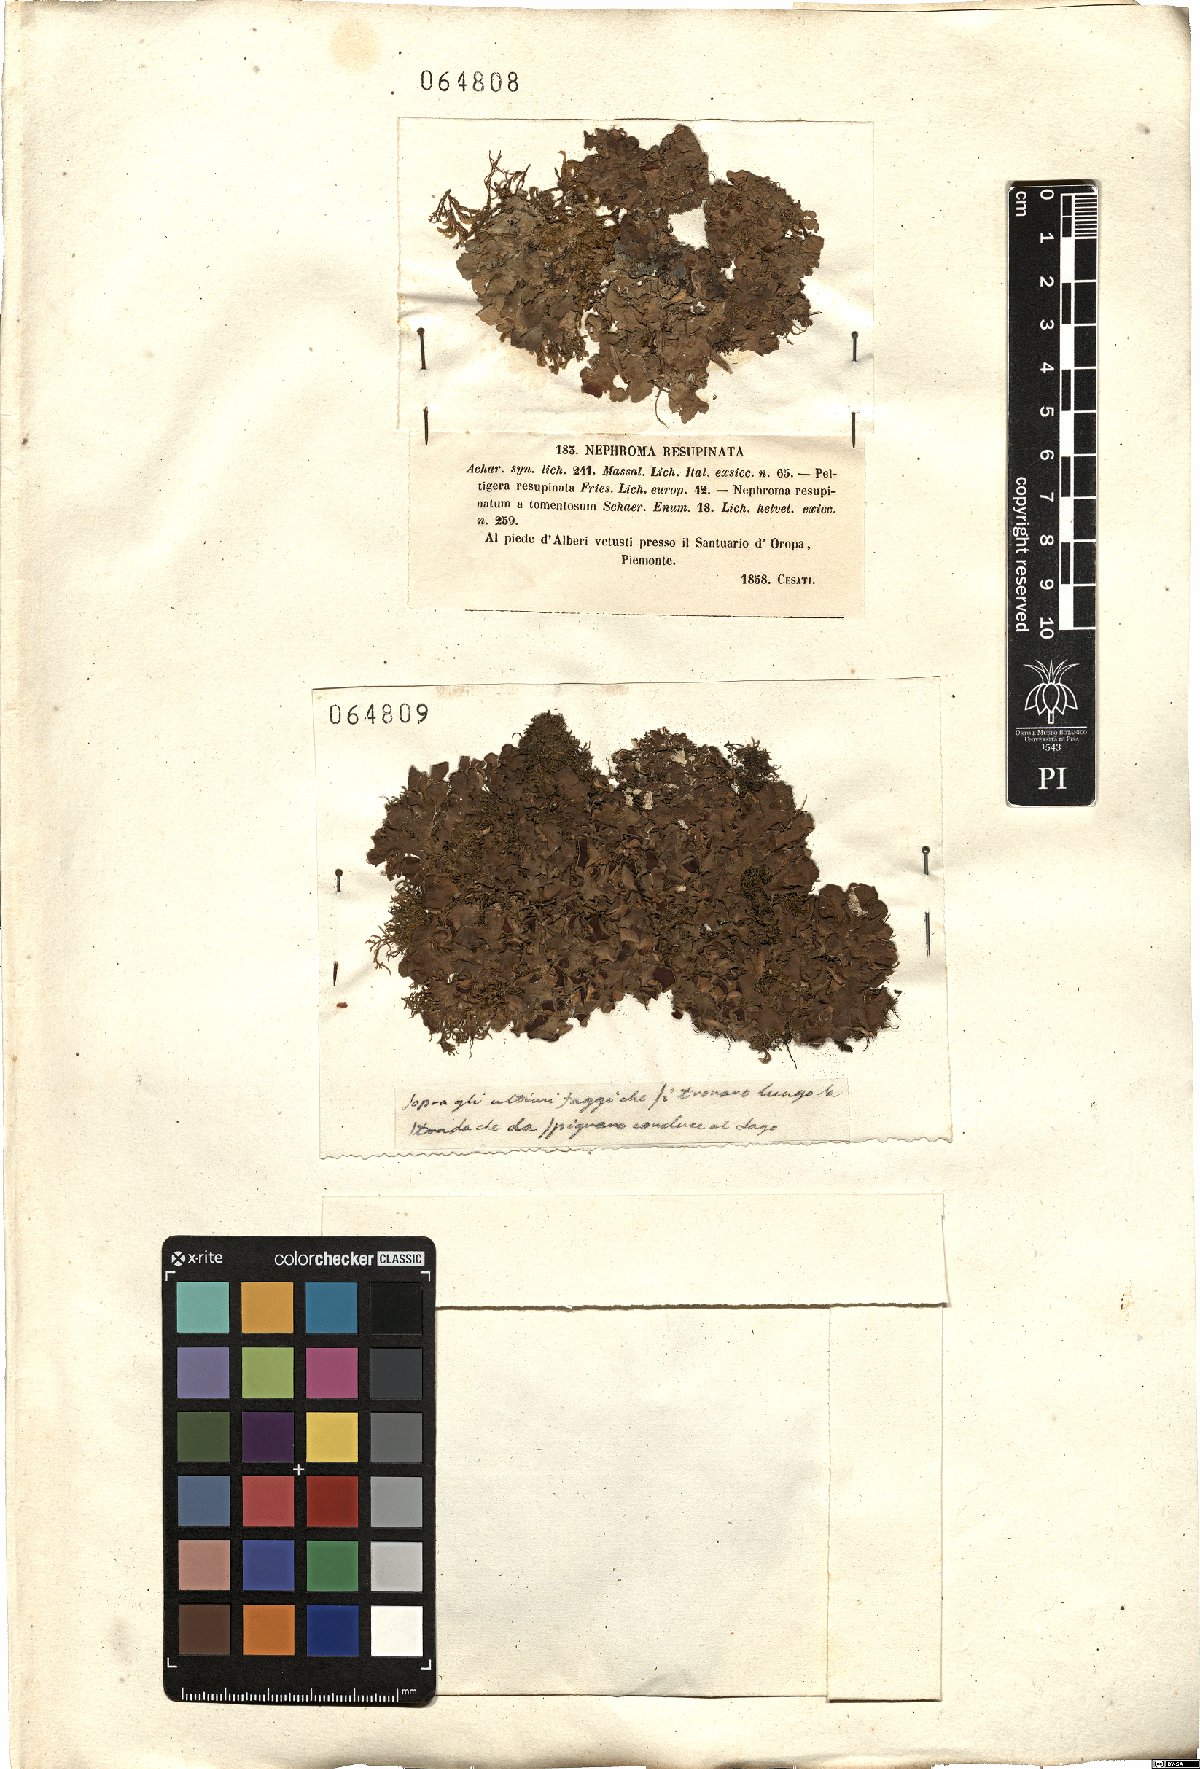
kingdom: Fungi
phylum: Ascomycota
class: Lecanoromycetes
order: Peltigerales
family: Nephromataceae
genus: Nephroma
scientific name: Nephroma resupinatum
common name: Pimpled kidney lichen
